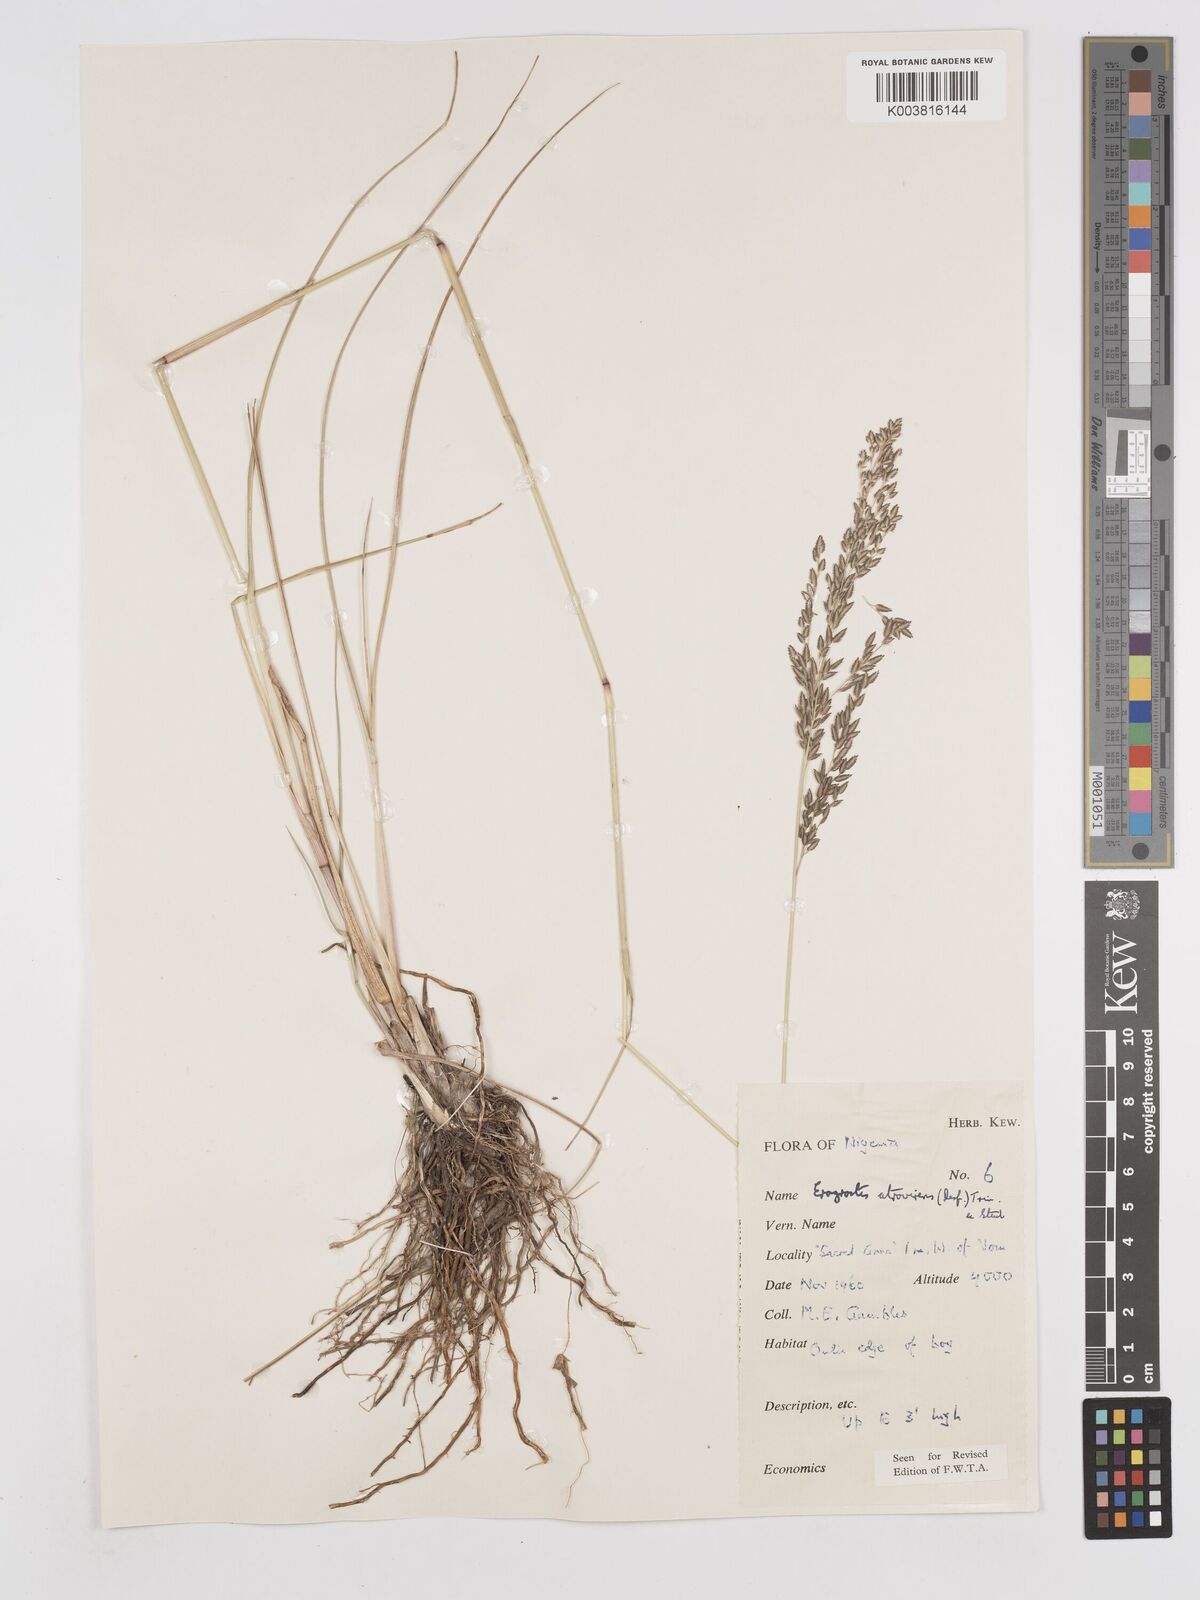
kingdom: Plantae
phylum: Tracheophyta
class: Liliopsida
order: Poales
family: Poaceae
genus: Eragrostis
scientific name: Eragrostis atrovirens
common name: Thalia lovegrass
